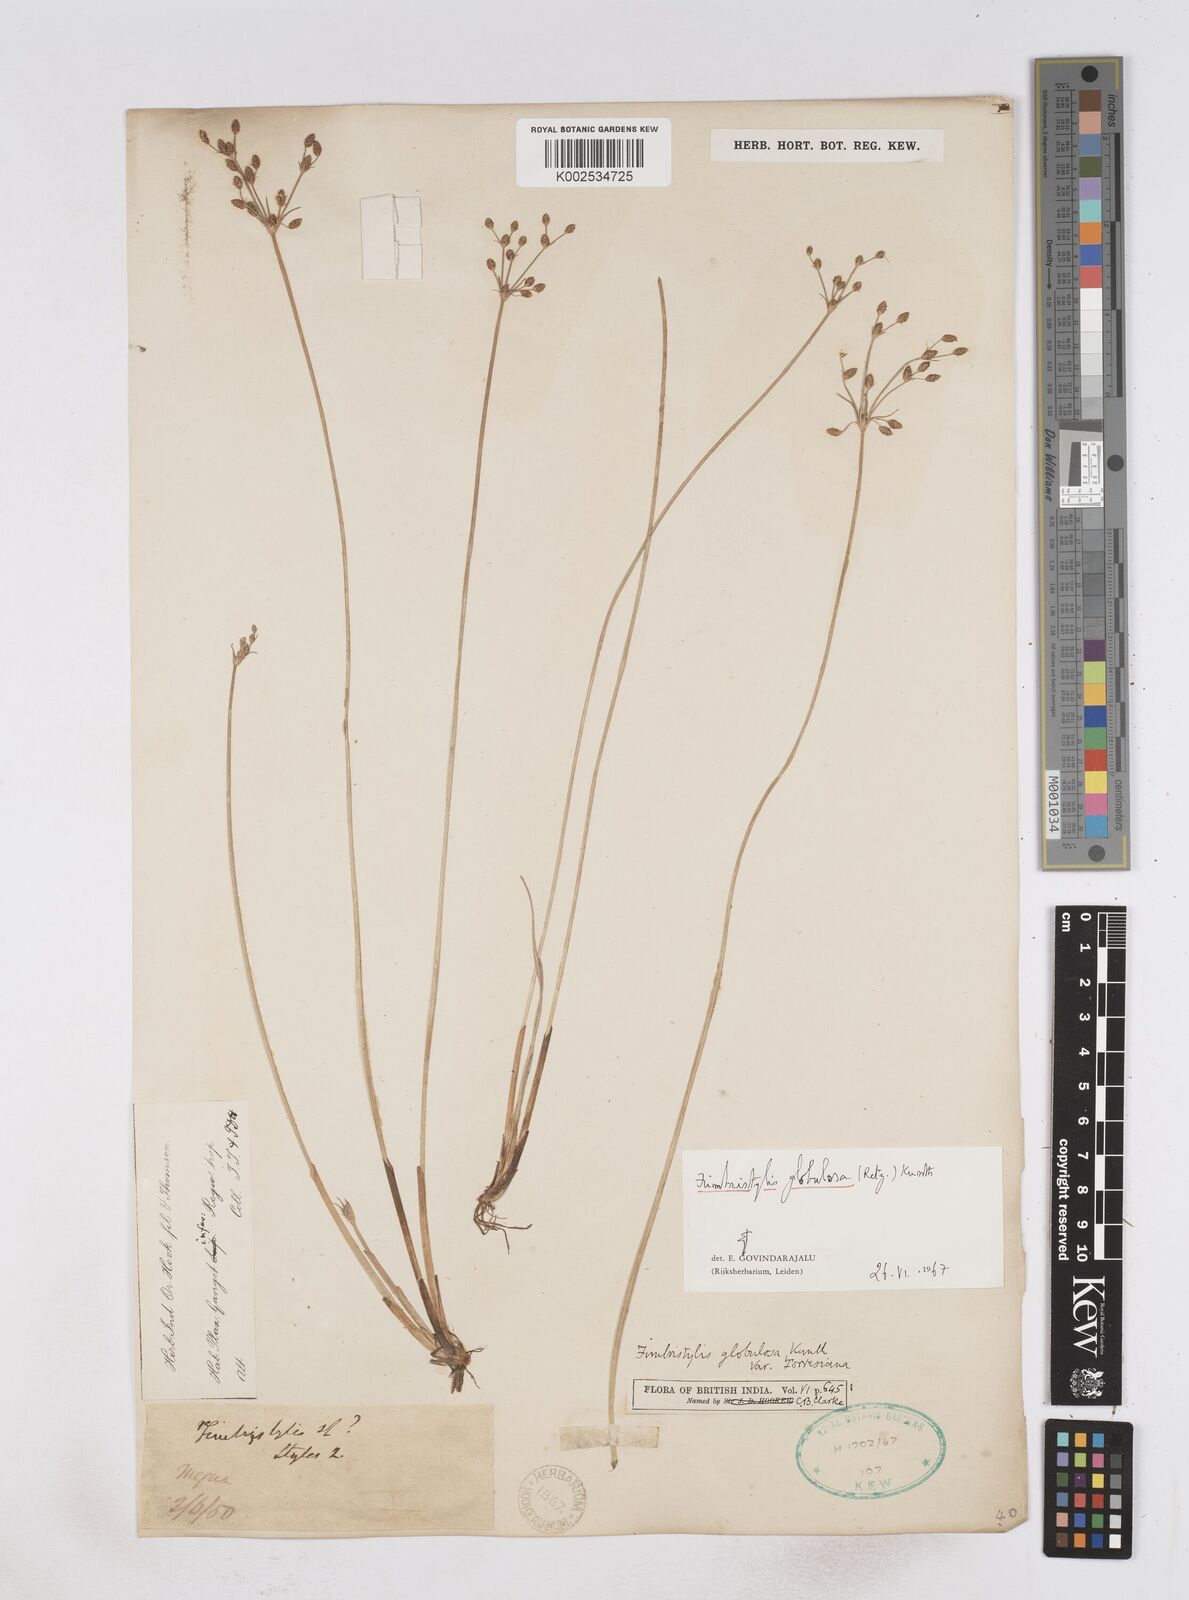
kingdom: Plantae
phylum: Tracheophyta
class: Liliopsida
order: Poales
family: Cyperaceae
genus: Fimbristylis
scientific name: Fimbristylis umbellaris
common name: Globular fimbristylis
